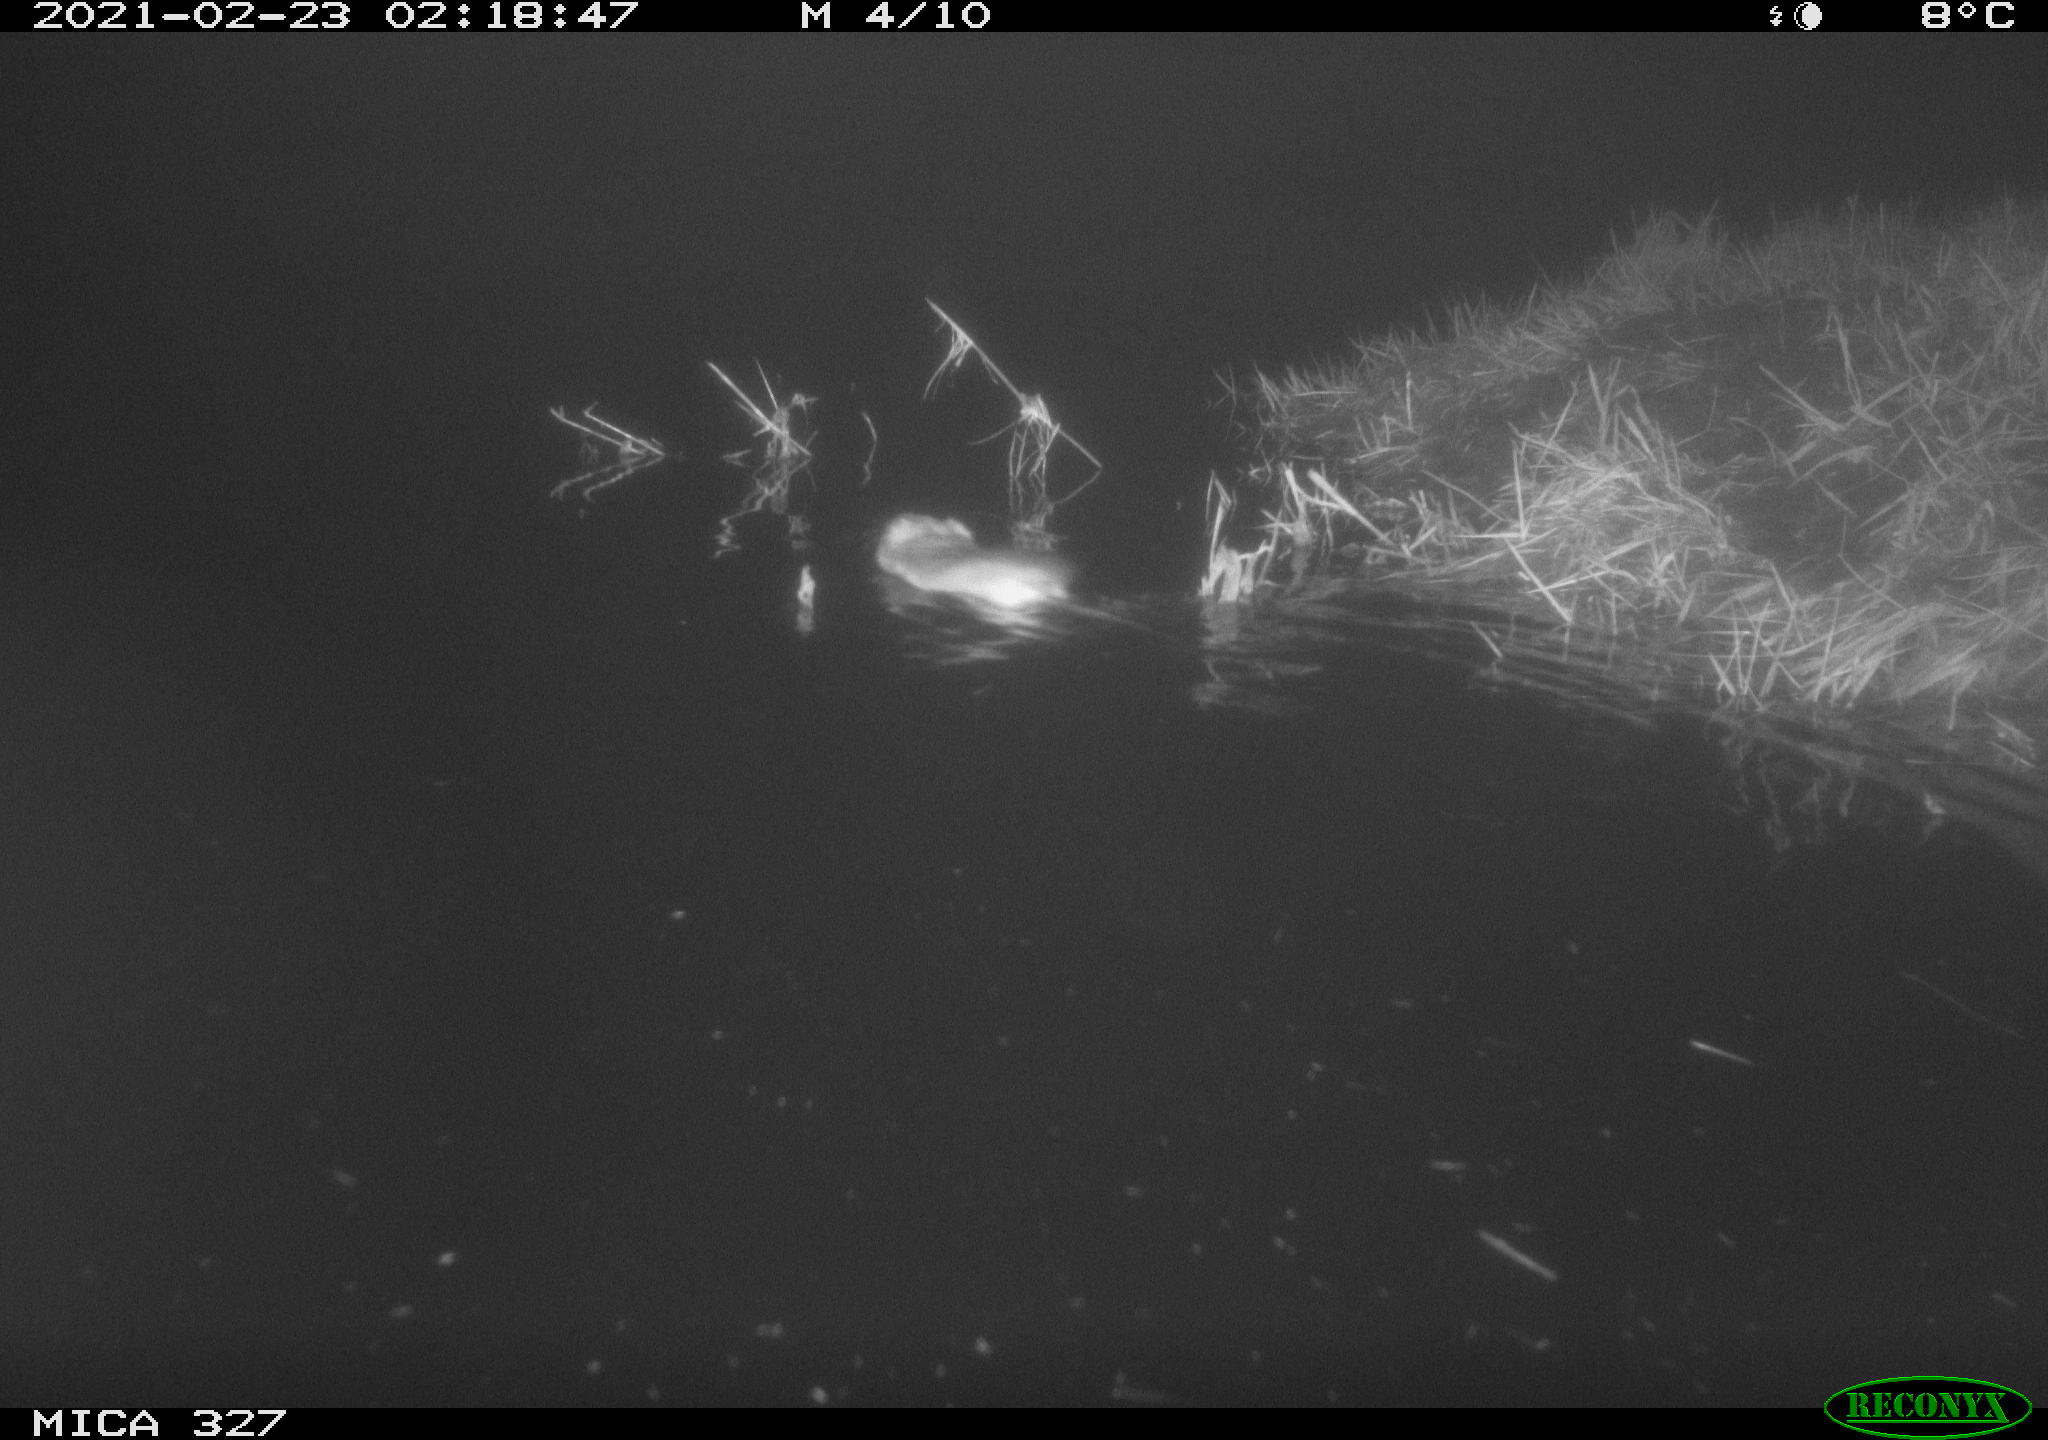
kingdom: Animalia
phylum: Chordata
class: Mammalia
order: Rodentia
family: Cricetidae
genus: Ondatra
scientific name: Ondatra zibethicus
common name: Muskrat
